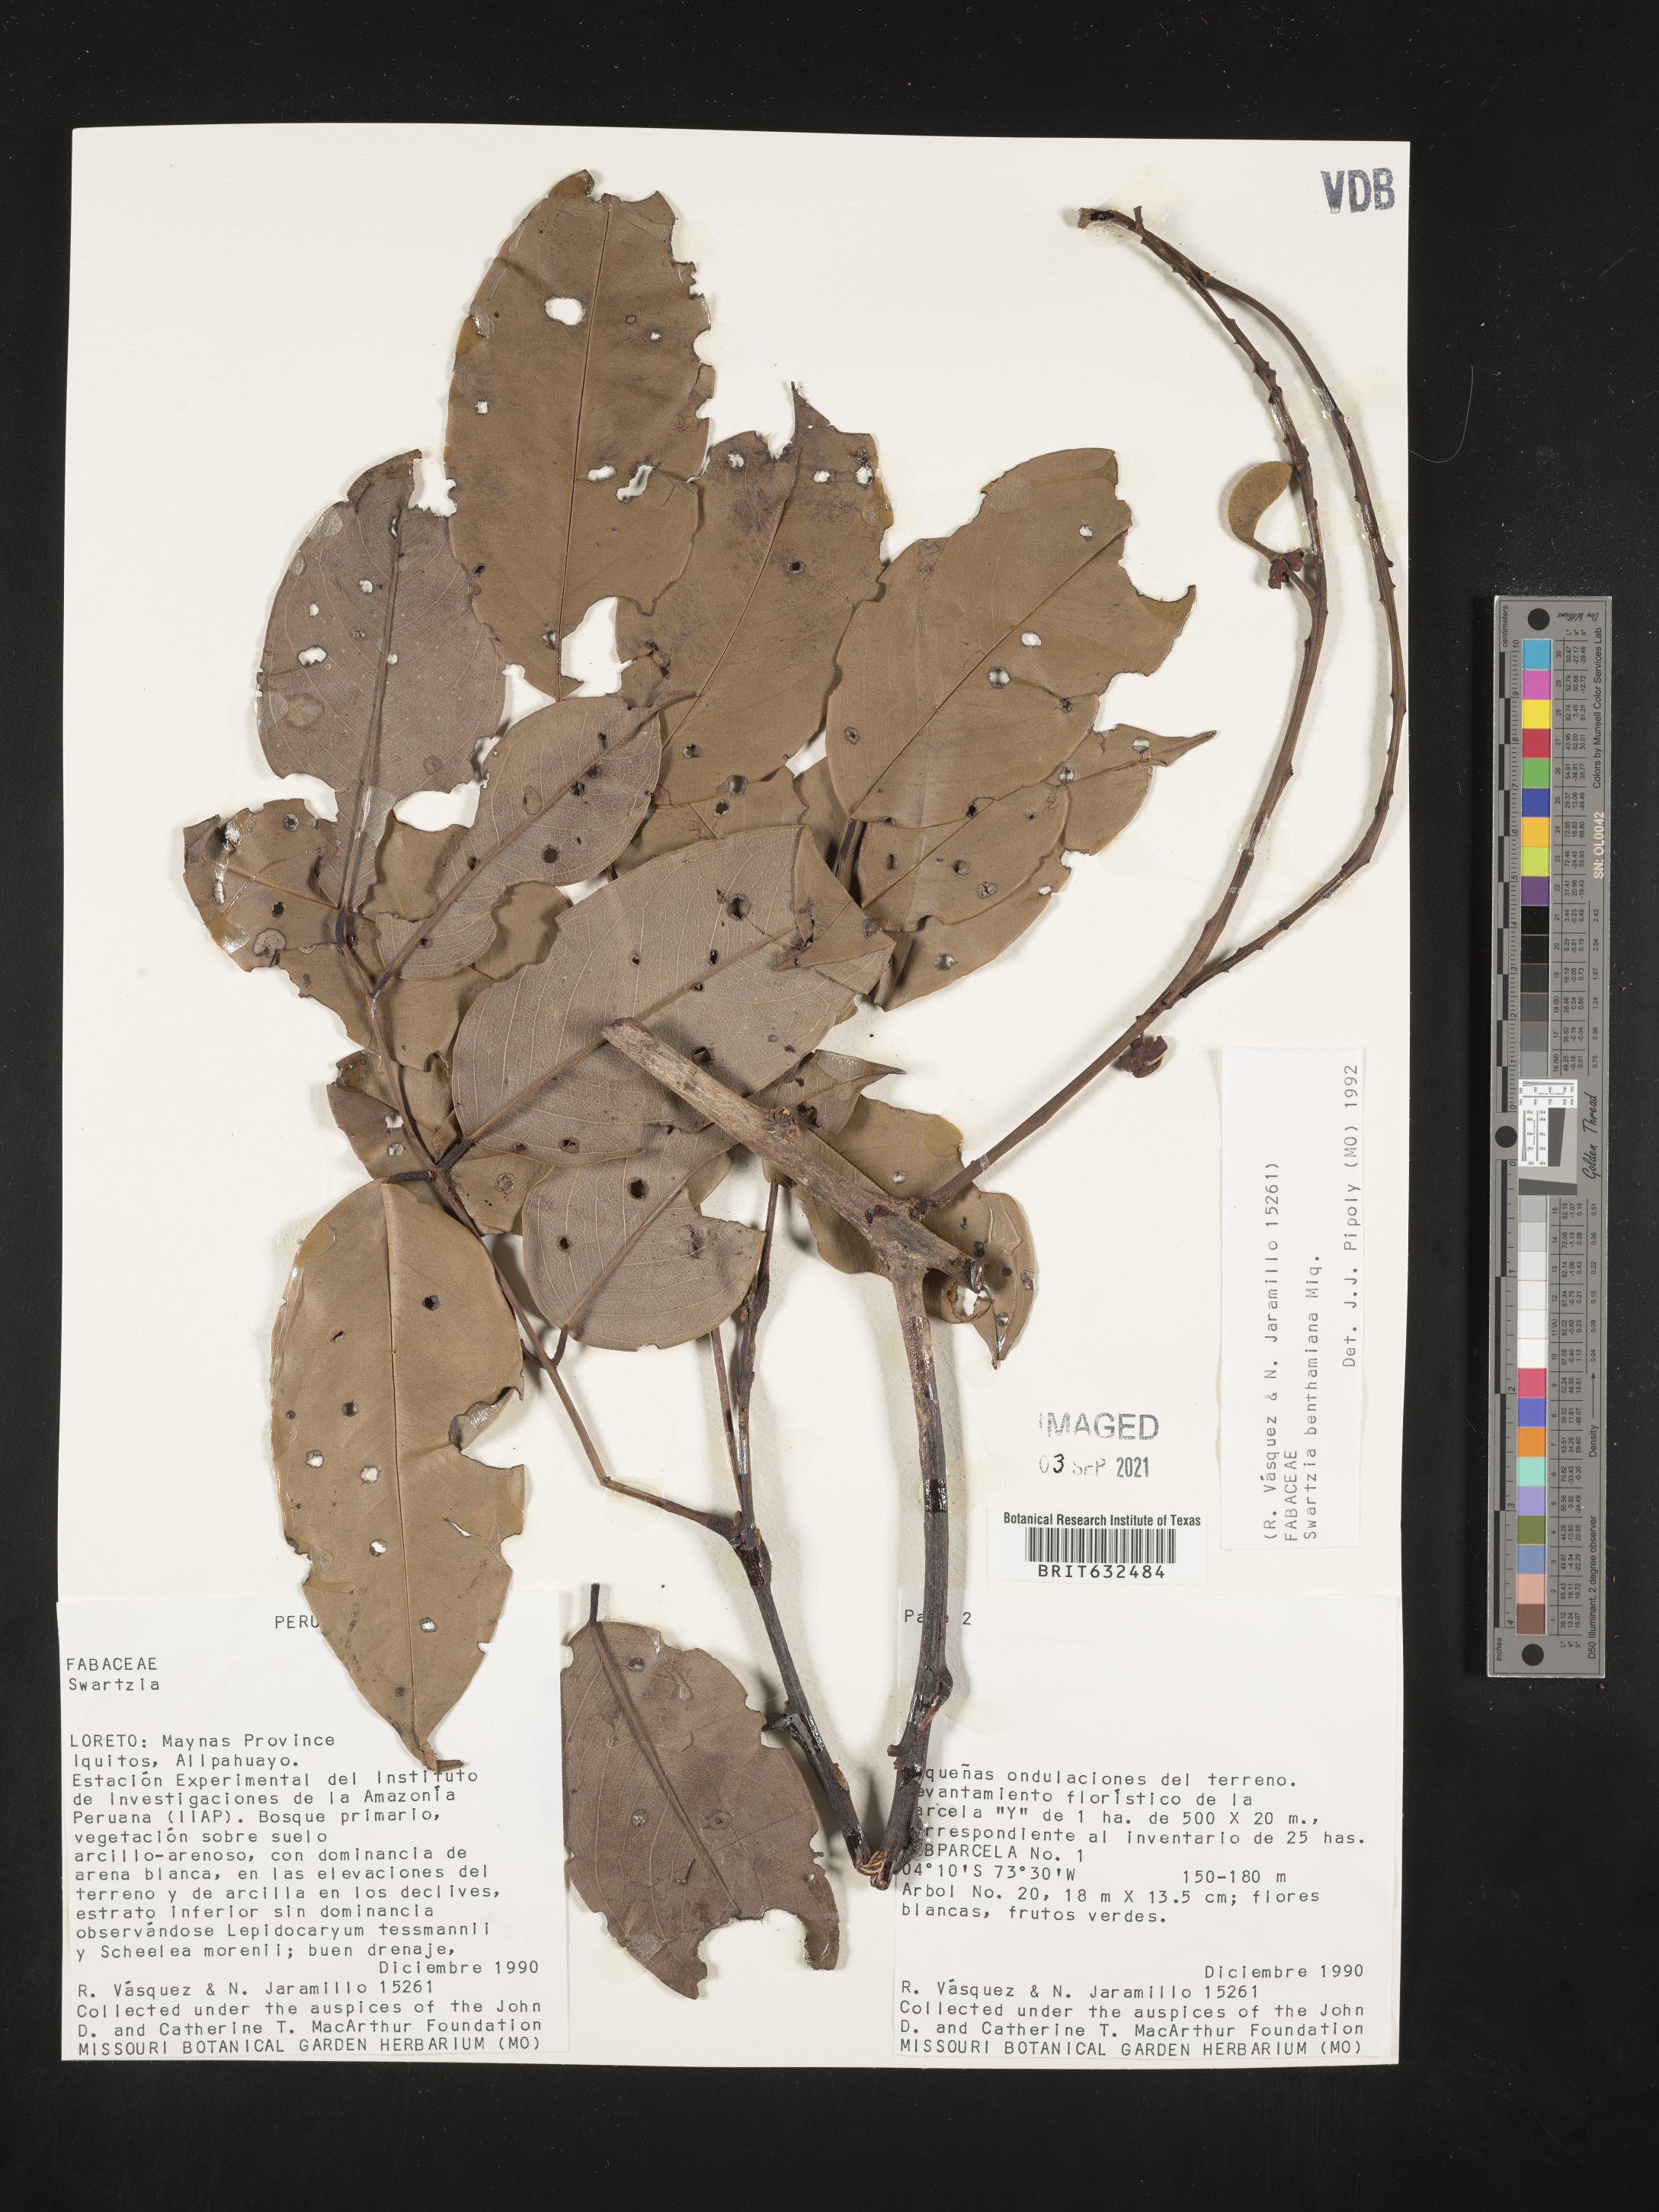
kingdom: Plantae
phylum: Tracheophyta
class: Magnoliopsida
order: Fabales
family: Fabaceae
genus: Swartzia
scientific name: Swartzia
